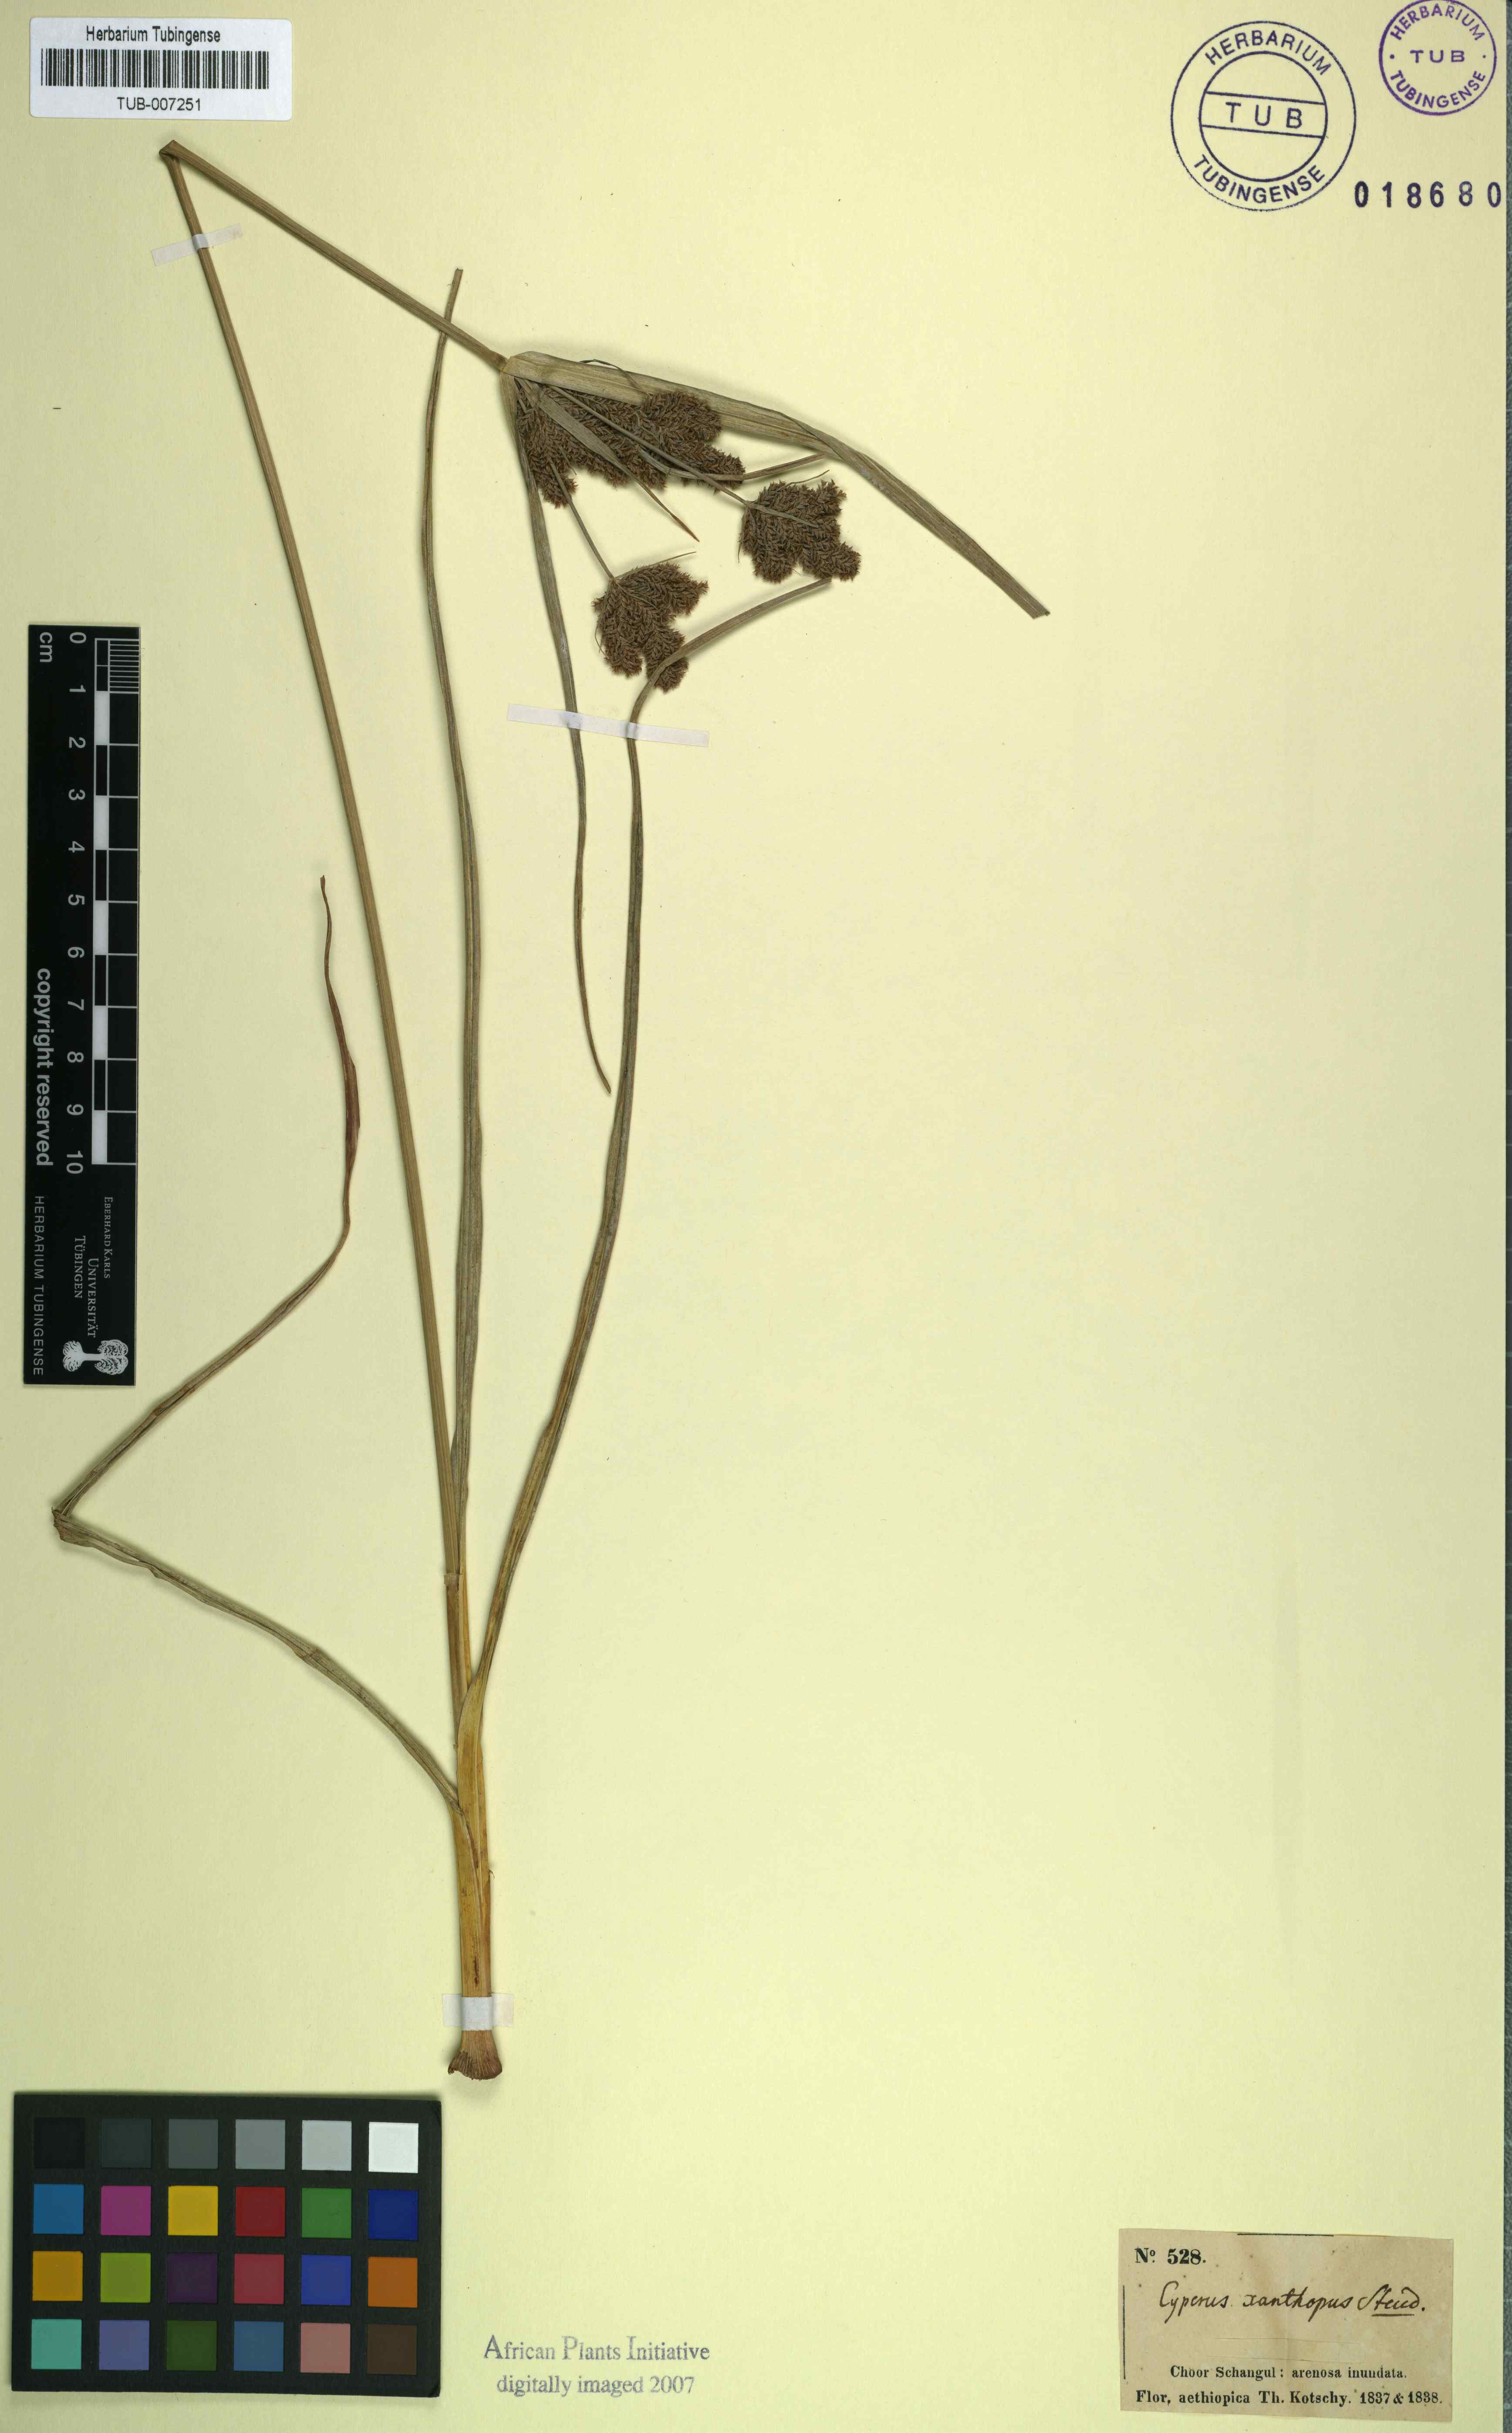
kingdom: Plantae
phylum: Tracheophyta
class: Liliopsida
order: Poales
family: Cyperaceae
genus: Cyperus
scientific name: Cyperus nutans
